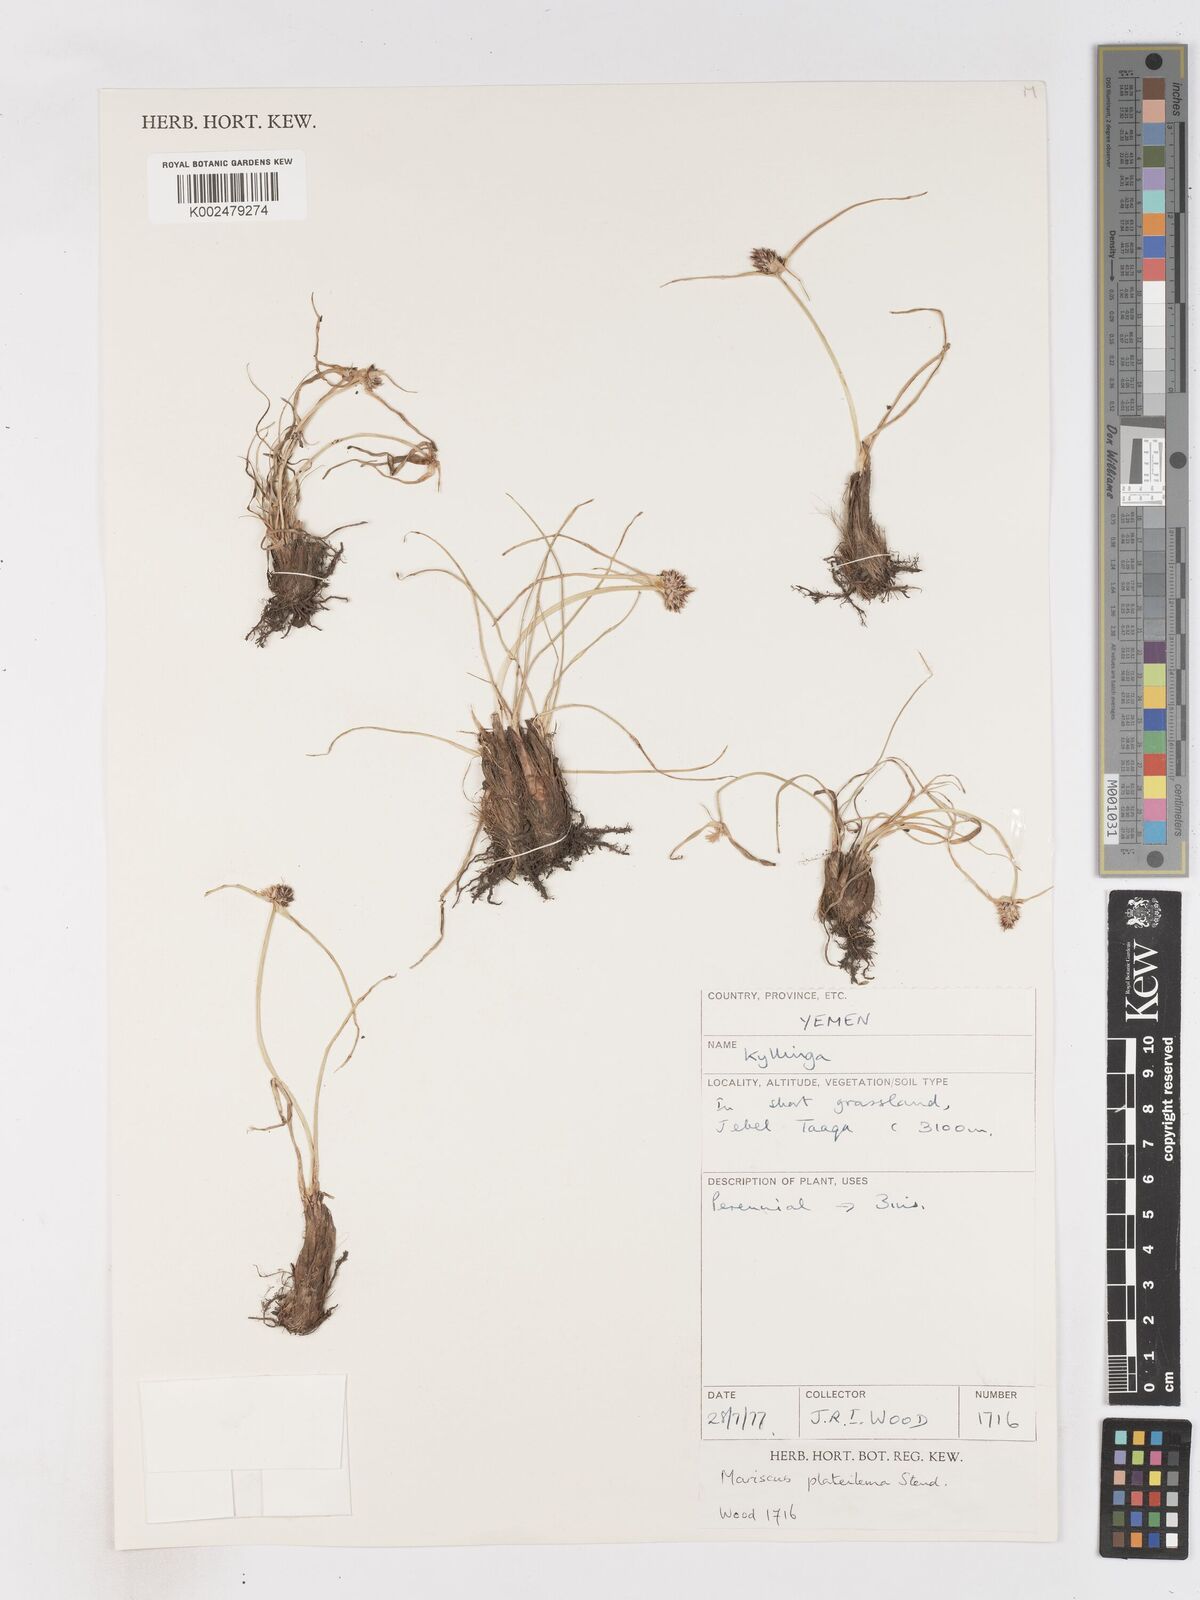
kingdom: Plantae
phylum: Tracheophyta
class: Liliopsida
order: Poales
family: Cyperaceae
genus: Cyperus
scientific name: Cyperus plateilema
